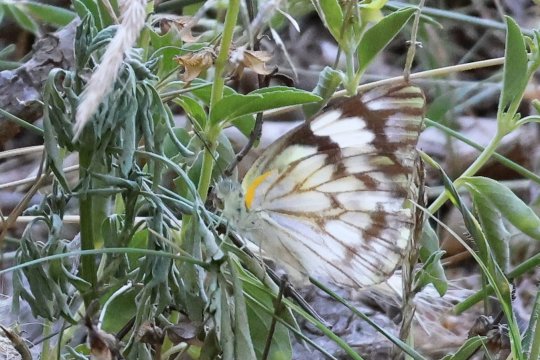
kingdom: Animalia
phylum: Arthropoda
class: Insecta
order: Lepidoptera
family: Pieridae
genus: Belenois
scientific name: Belenois gidica
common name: African Veined White
